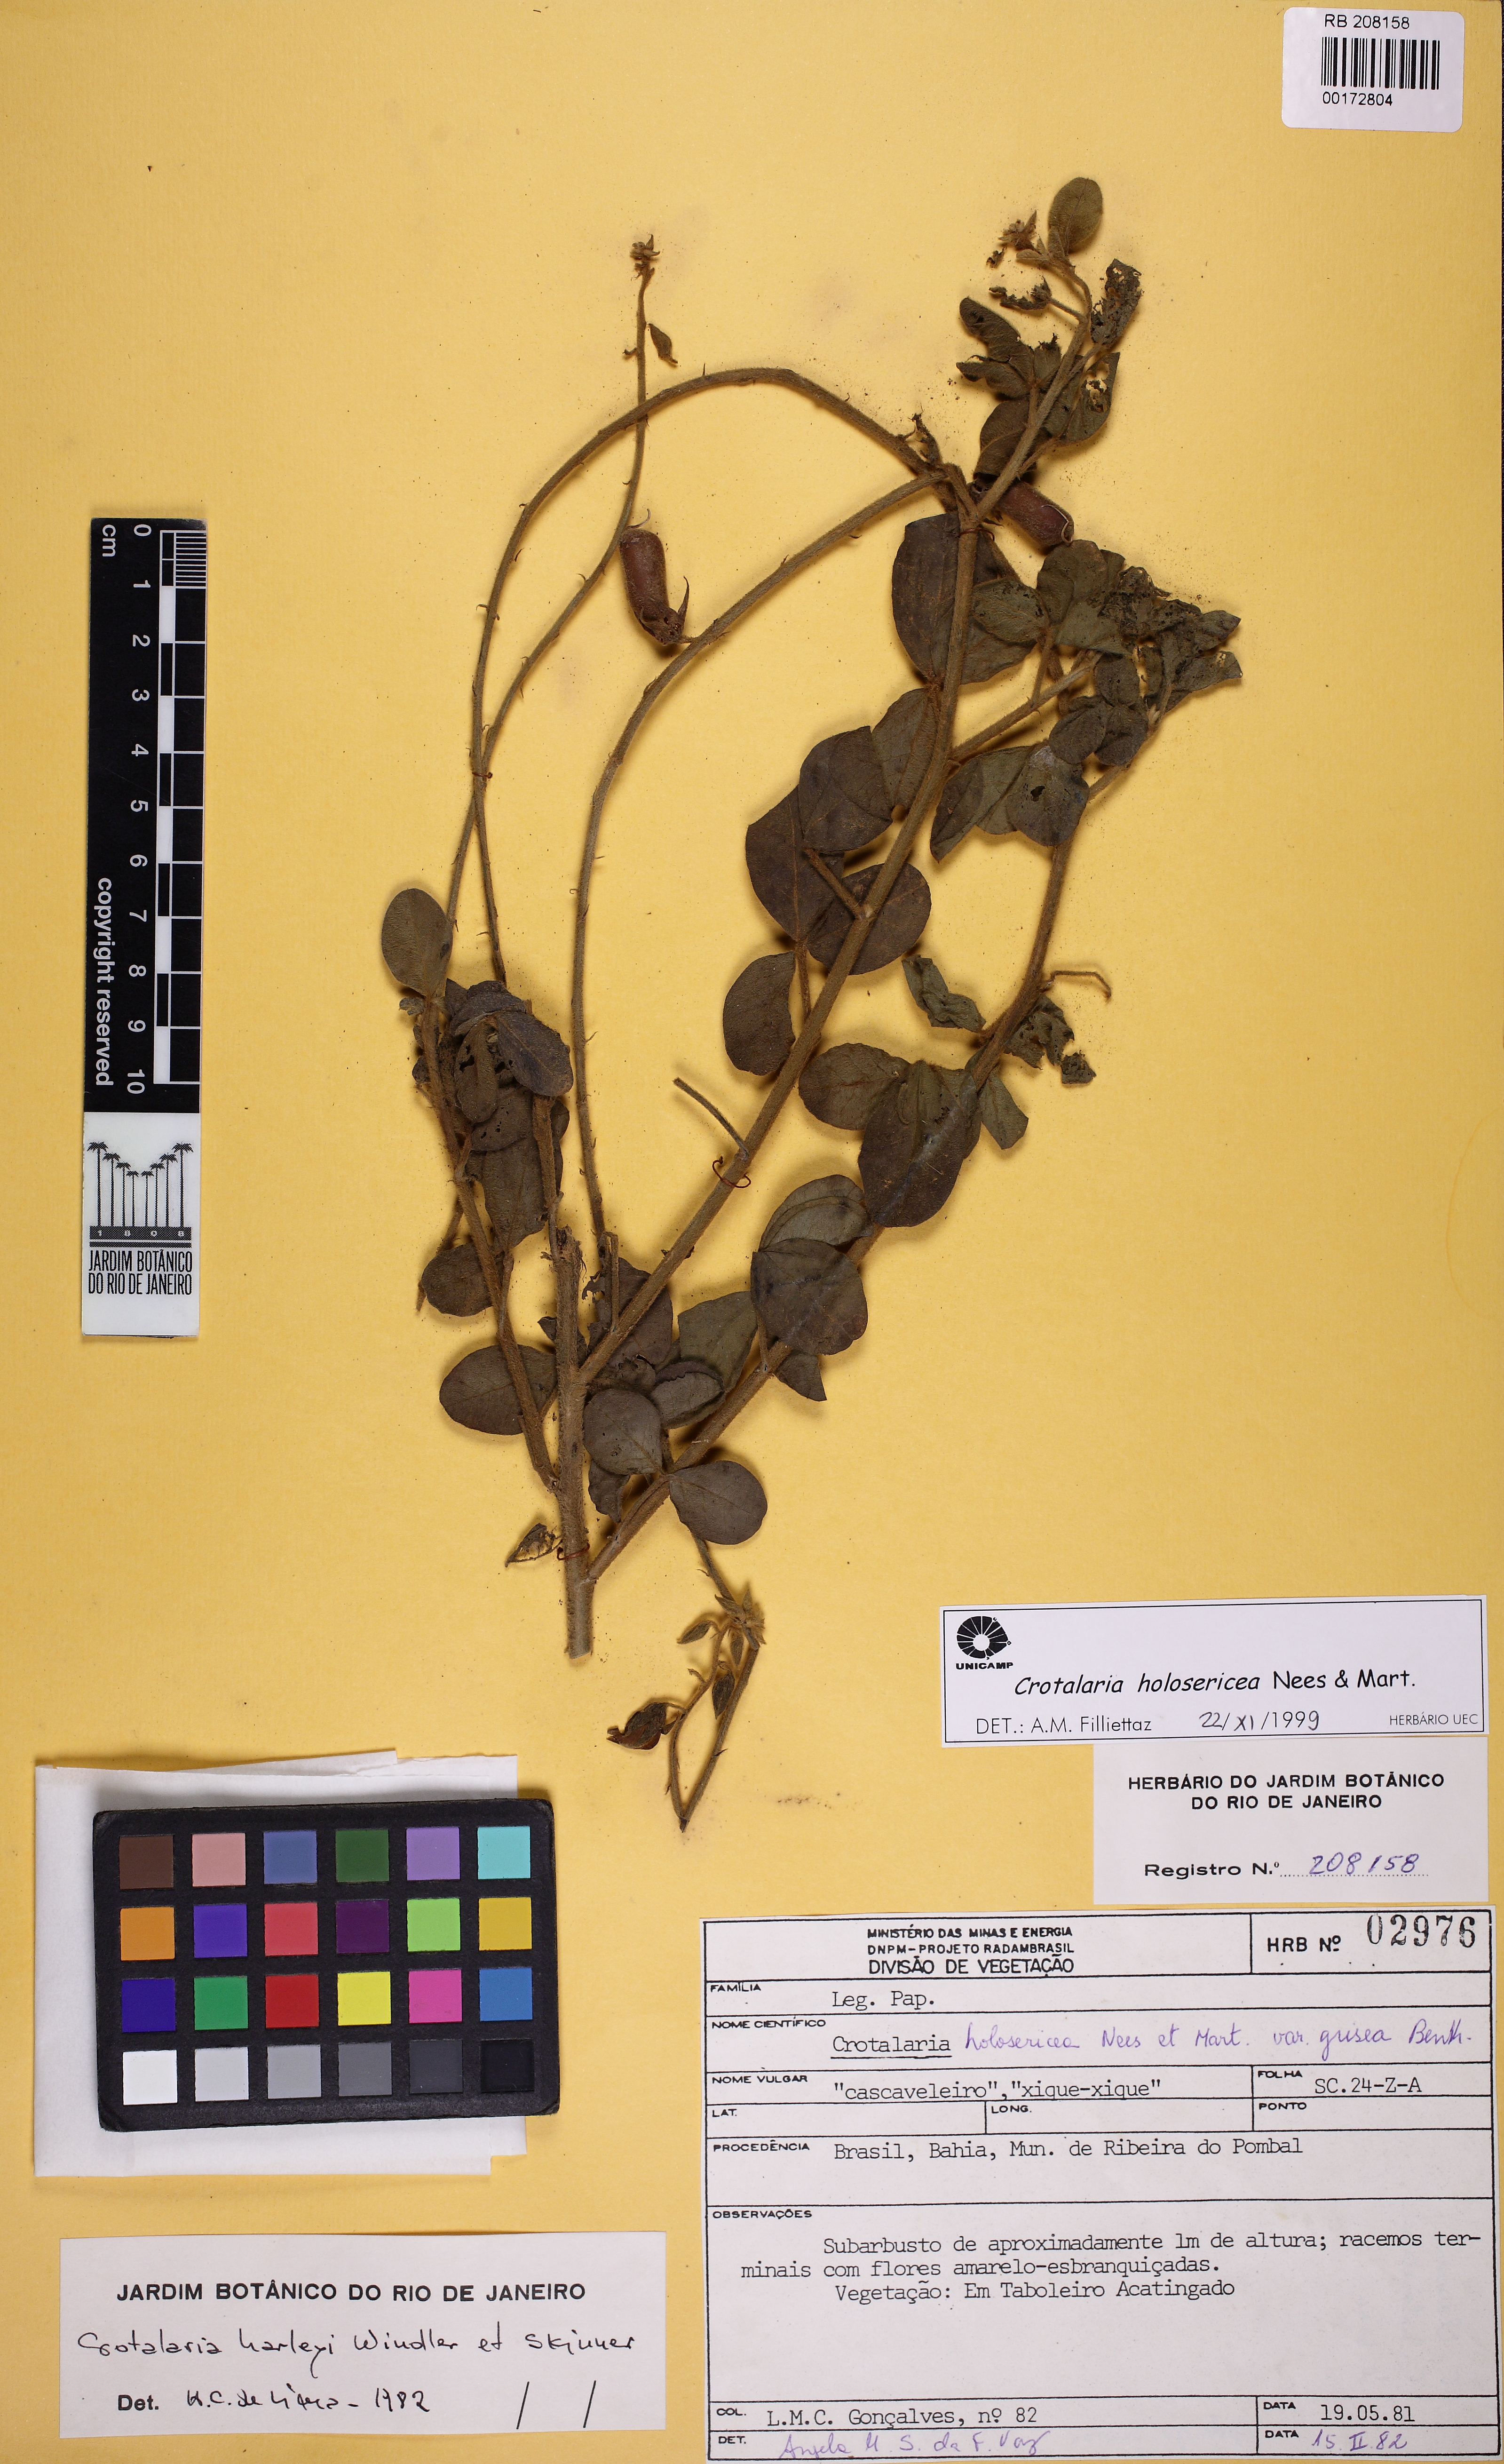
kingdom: Plantae
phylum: Tracheophyta
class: Magnoliopsida
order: Fabales
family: Fabaceae
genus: Crotalaria
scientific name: Crotalaria holosericea
